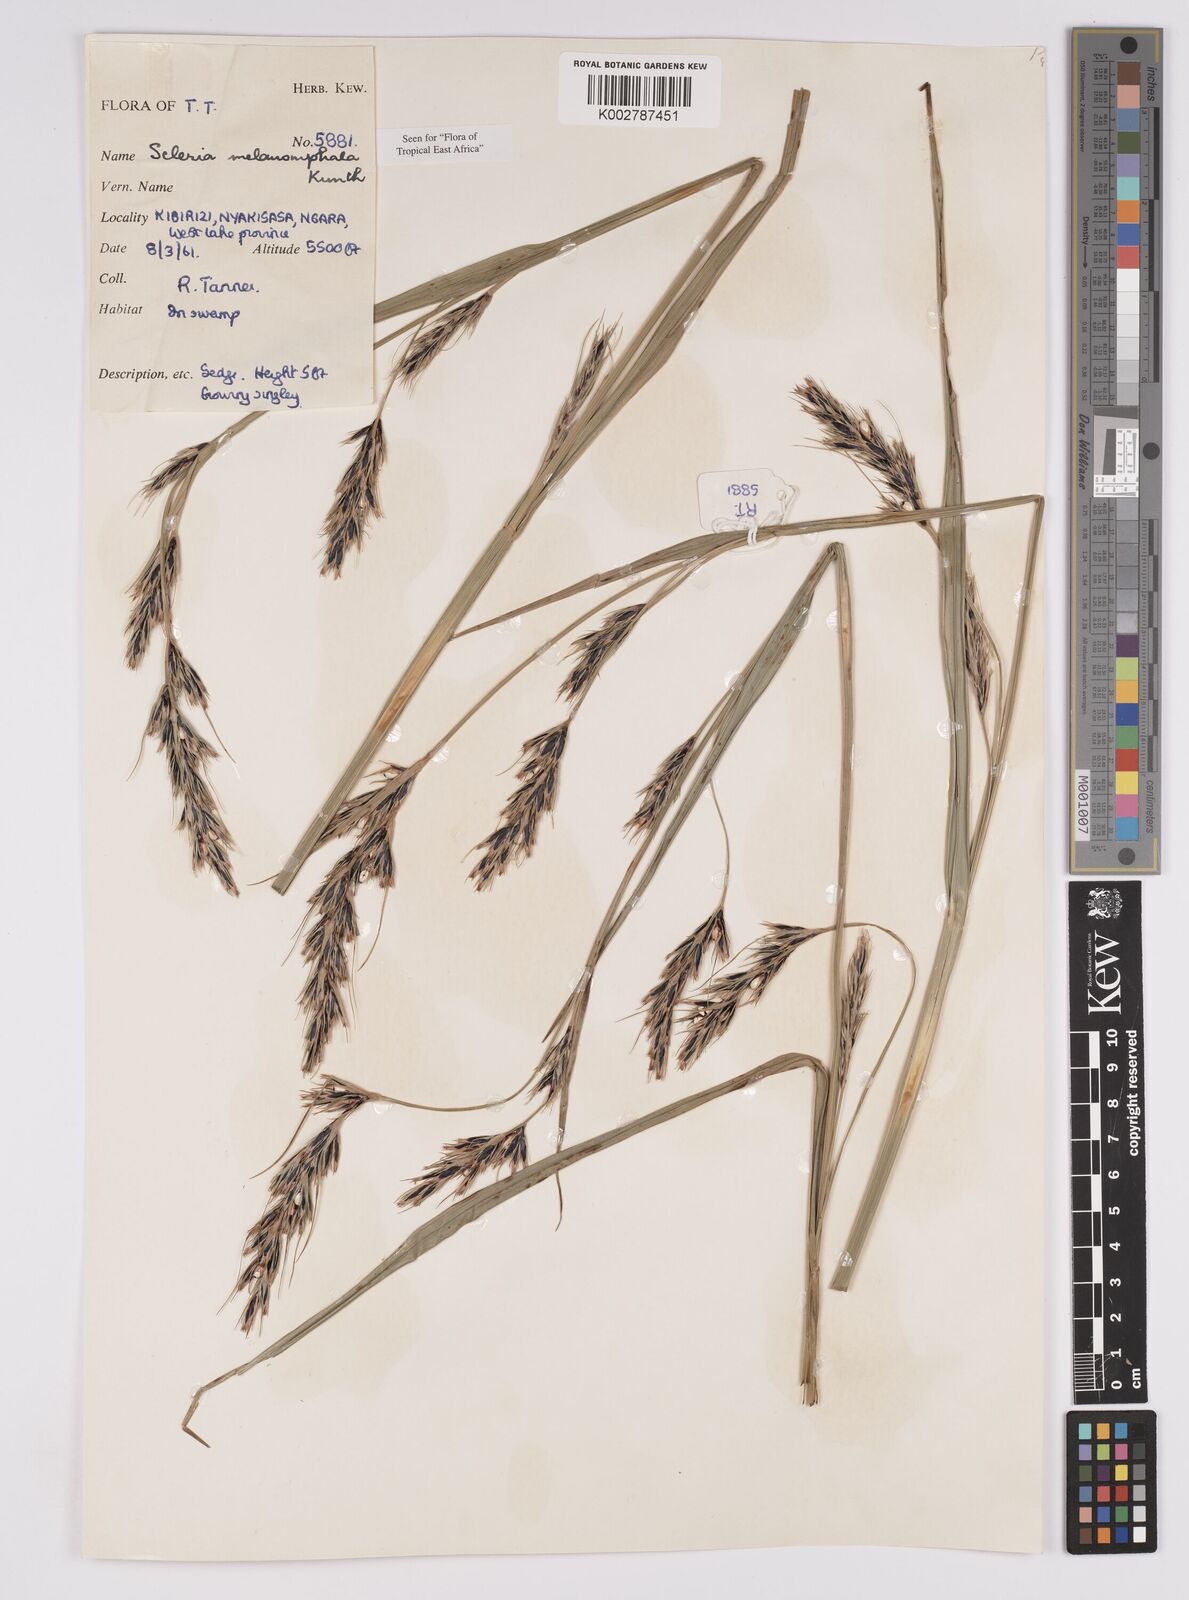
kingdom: Plantae
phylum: Tracheophyta
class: Liliopsida
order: Poales
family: Cyperaceae
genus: Scleria
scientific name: Scleria melanomphala
